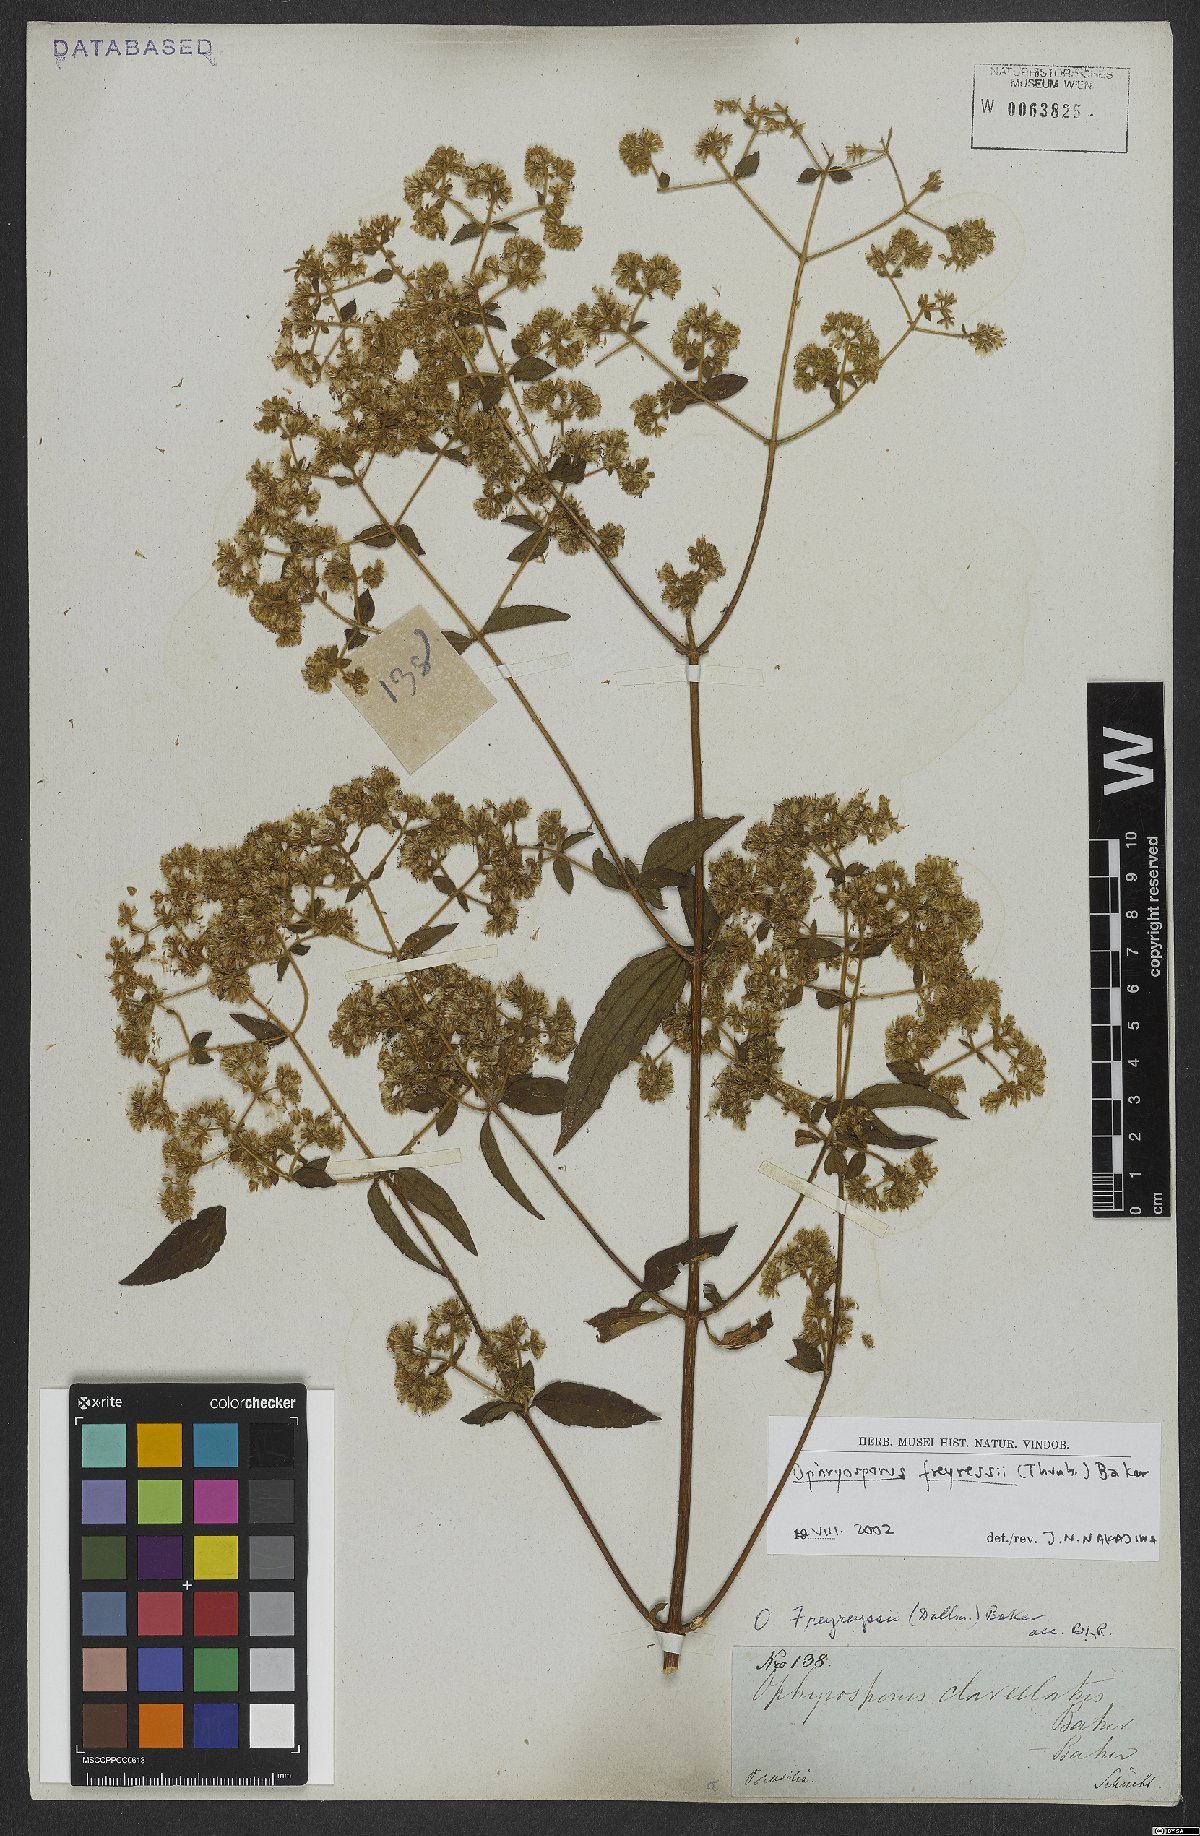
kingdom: Plantae
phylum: Tracheophyta
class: Magnoliopsida
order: Asterales
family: Asteraceae
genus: Ophryosporus
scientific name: Ophryosporus freyreysi
